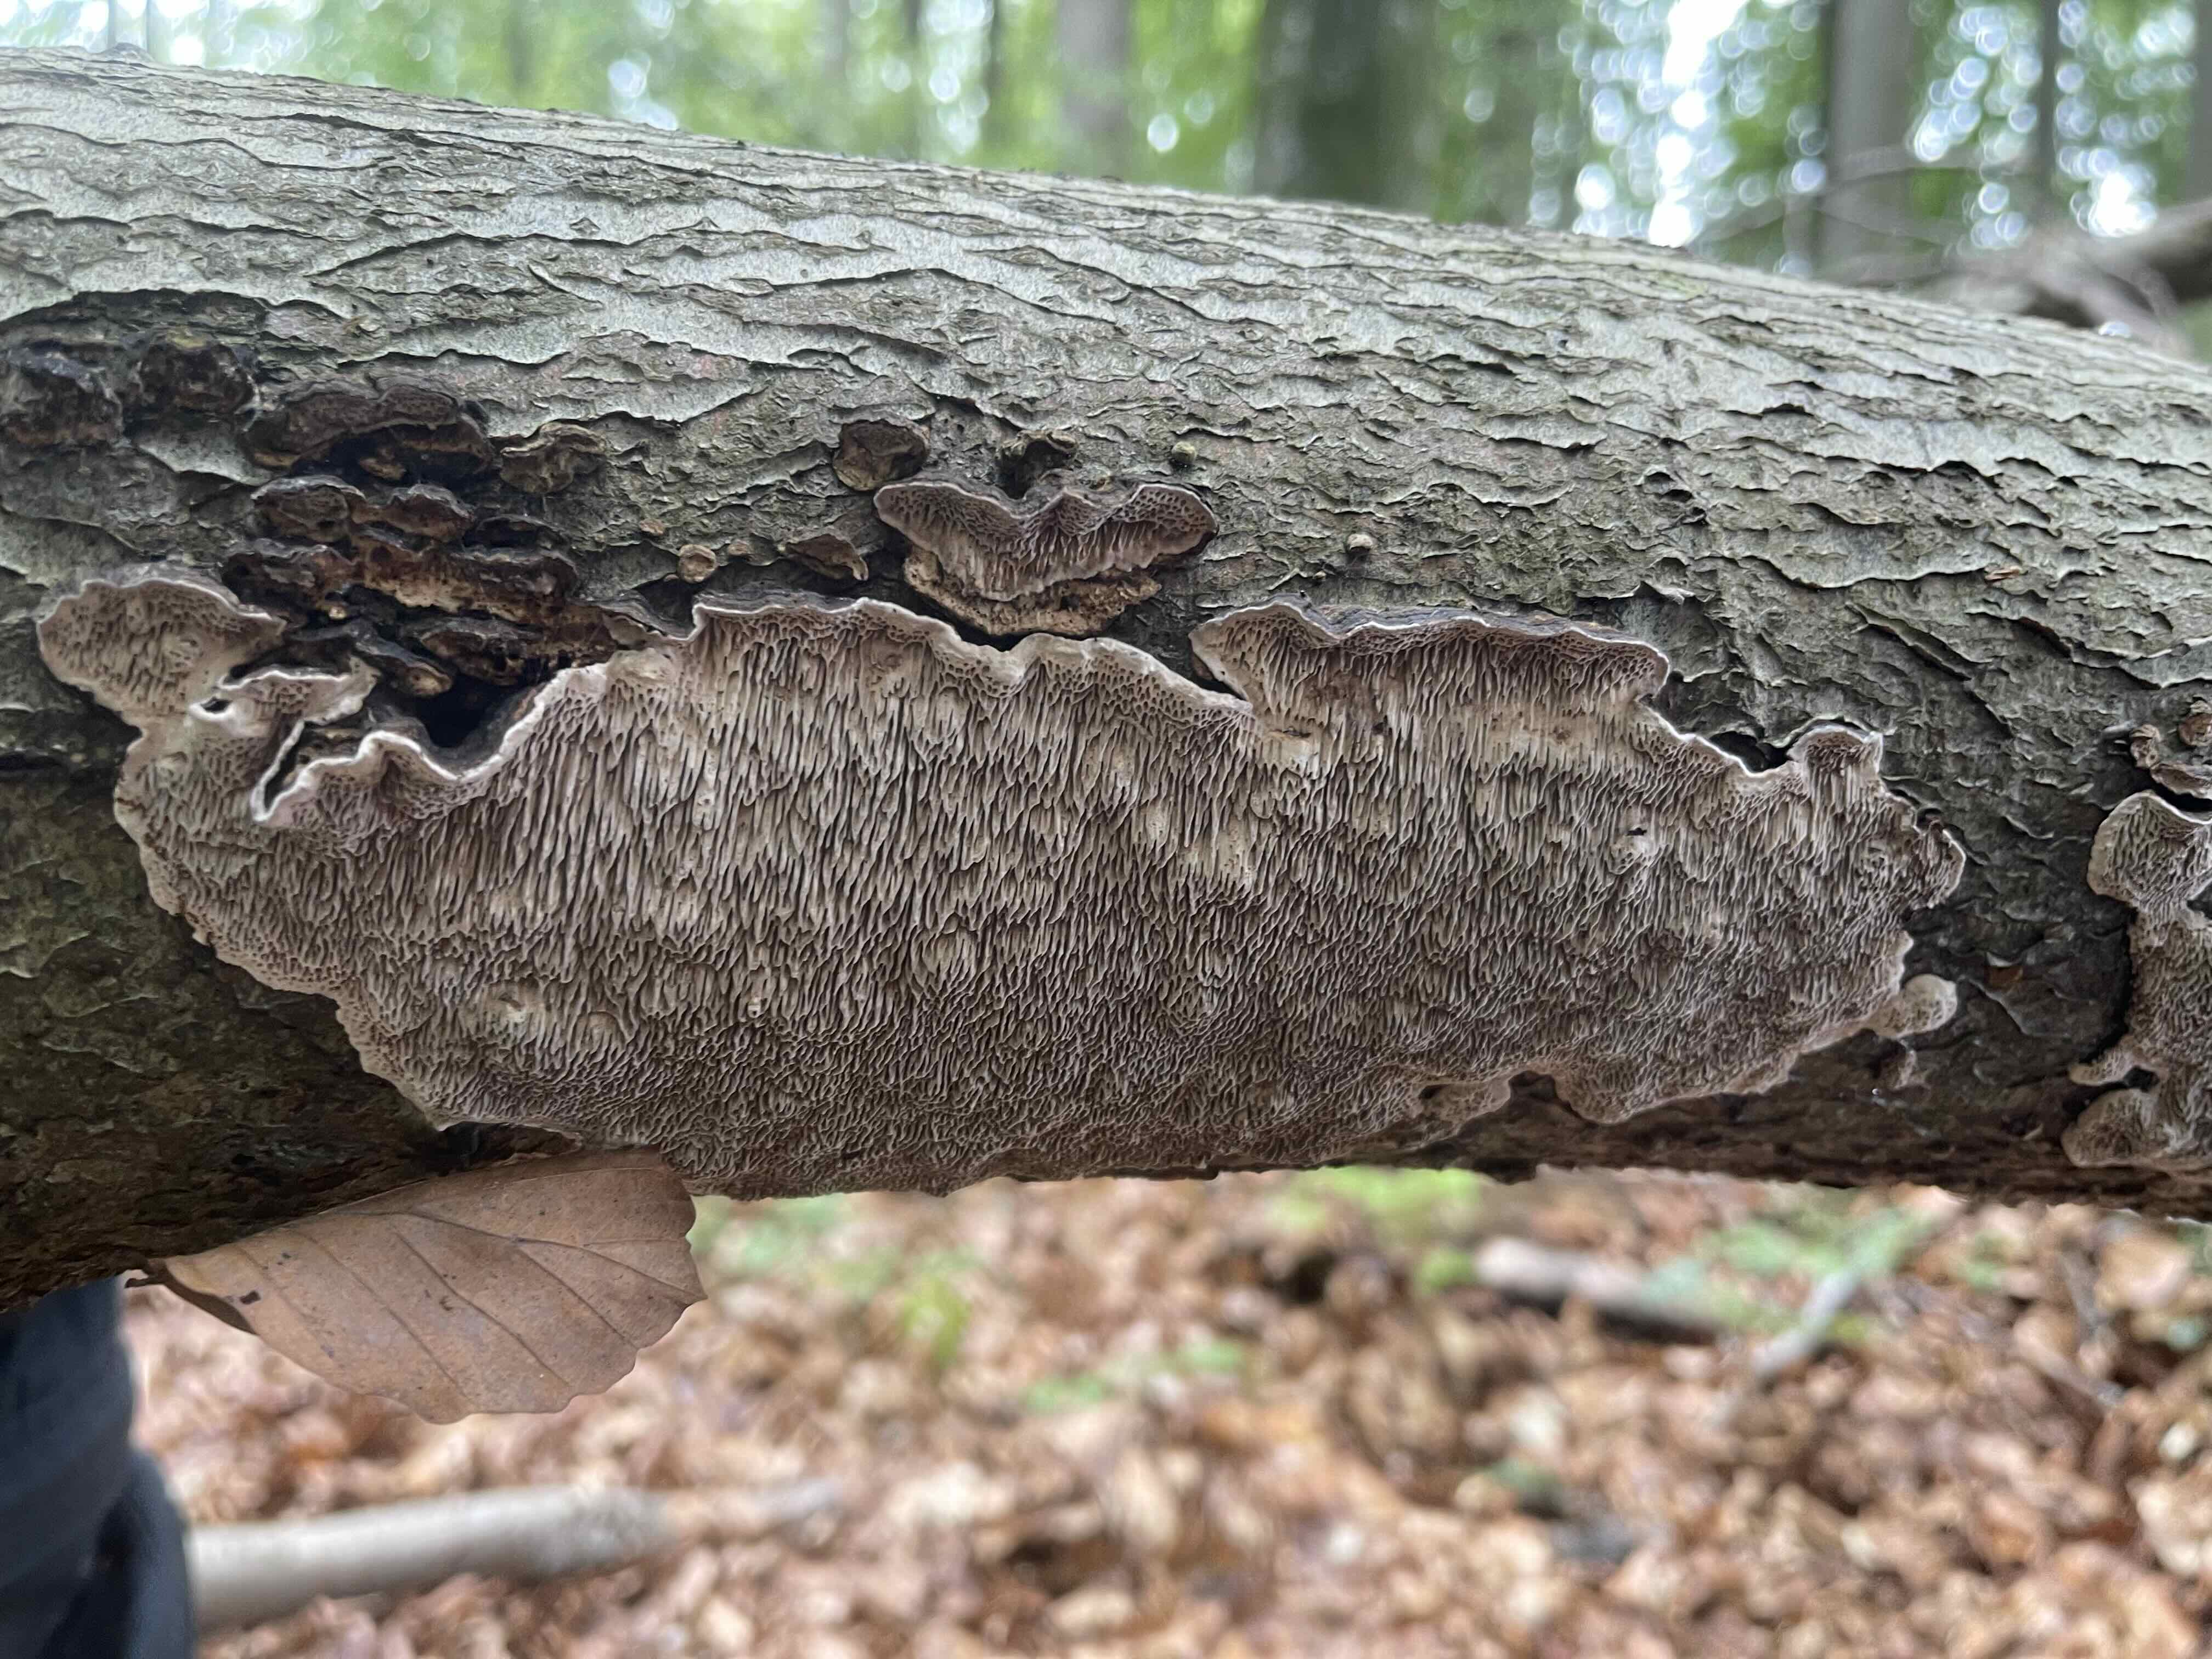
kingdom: Fungi
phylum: Basidiomycota
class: Agaricomycetes
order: Polyporales
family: Polyporaceae
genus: Podofomes
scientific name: Podofomes mollis
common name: blød begporesvamp
